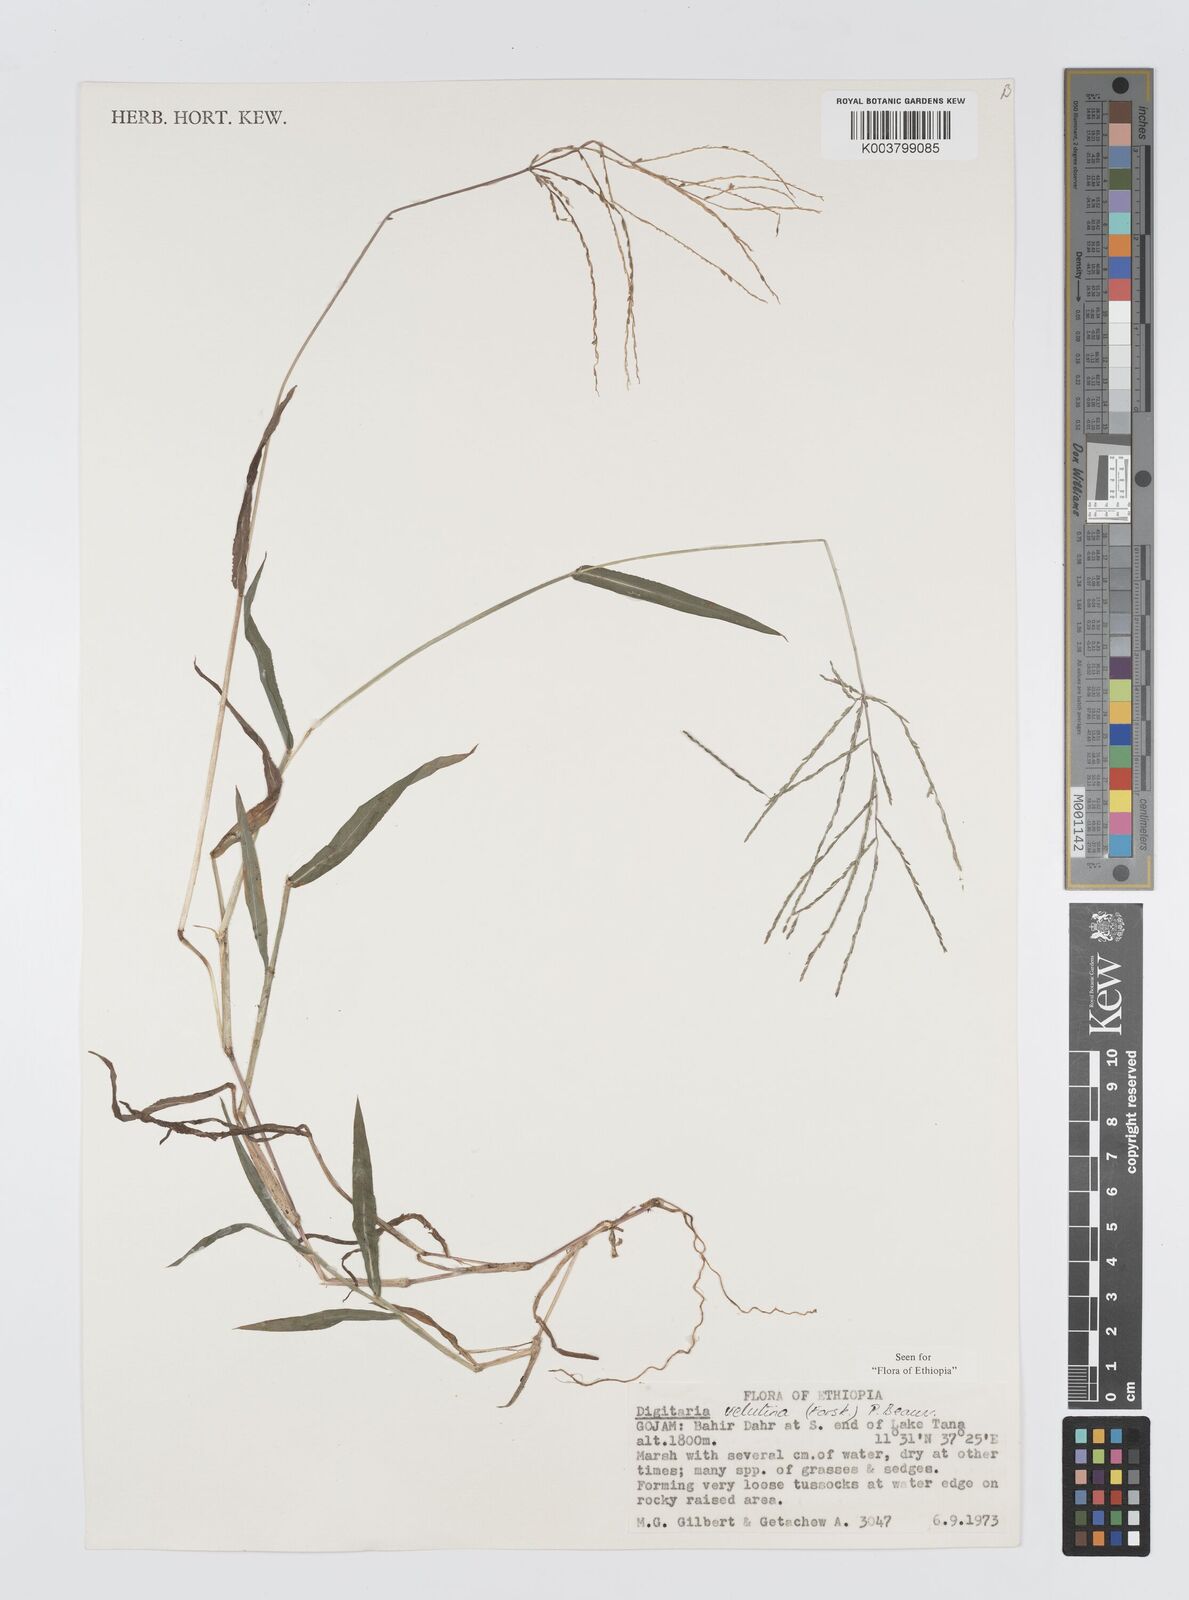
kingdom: Plantae
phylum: Tracheophyta
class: Liliopsida
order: Poales
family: Poaceae
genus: Digitaria
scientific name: Digitaria velutina
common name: Long-plume finger grass
